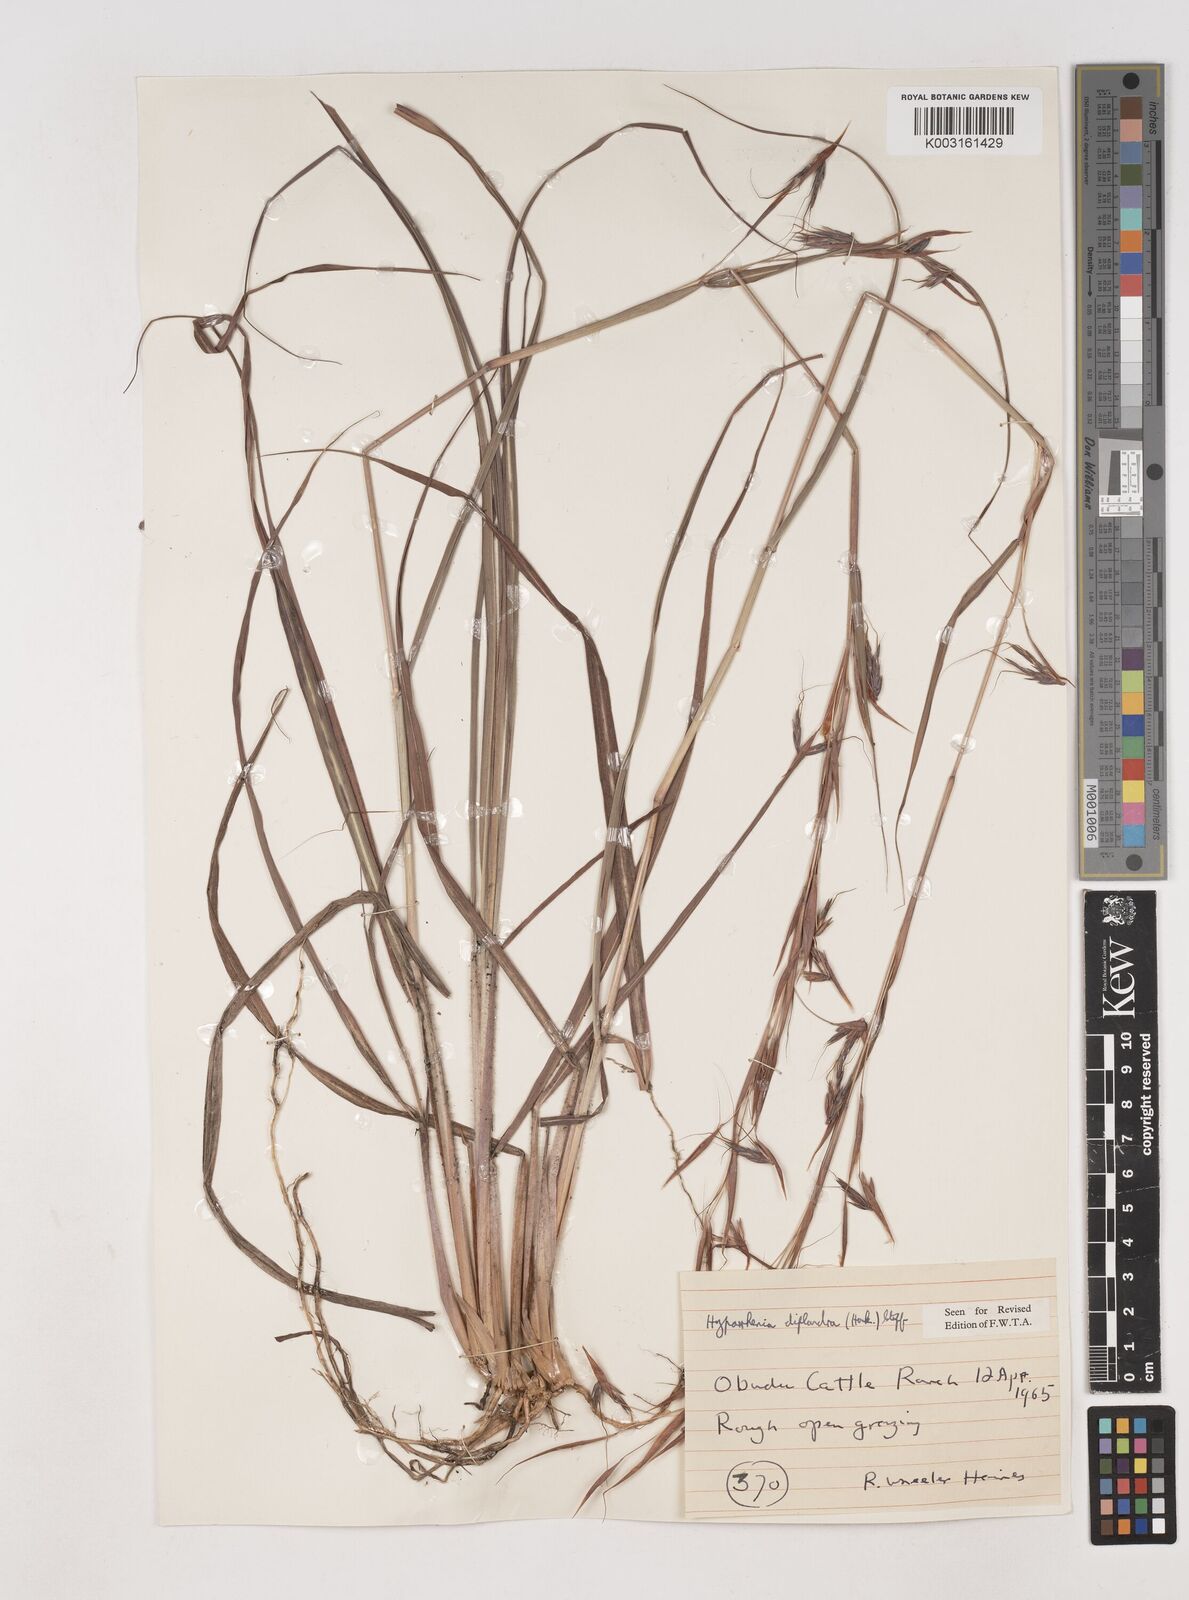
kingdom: Plantae
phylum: Tracheophyta
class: Liliopsida
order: Poales
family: Poaceae
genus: Hyparrhenia
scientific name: Hyparrhenia diplandra
